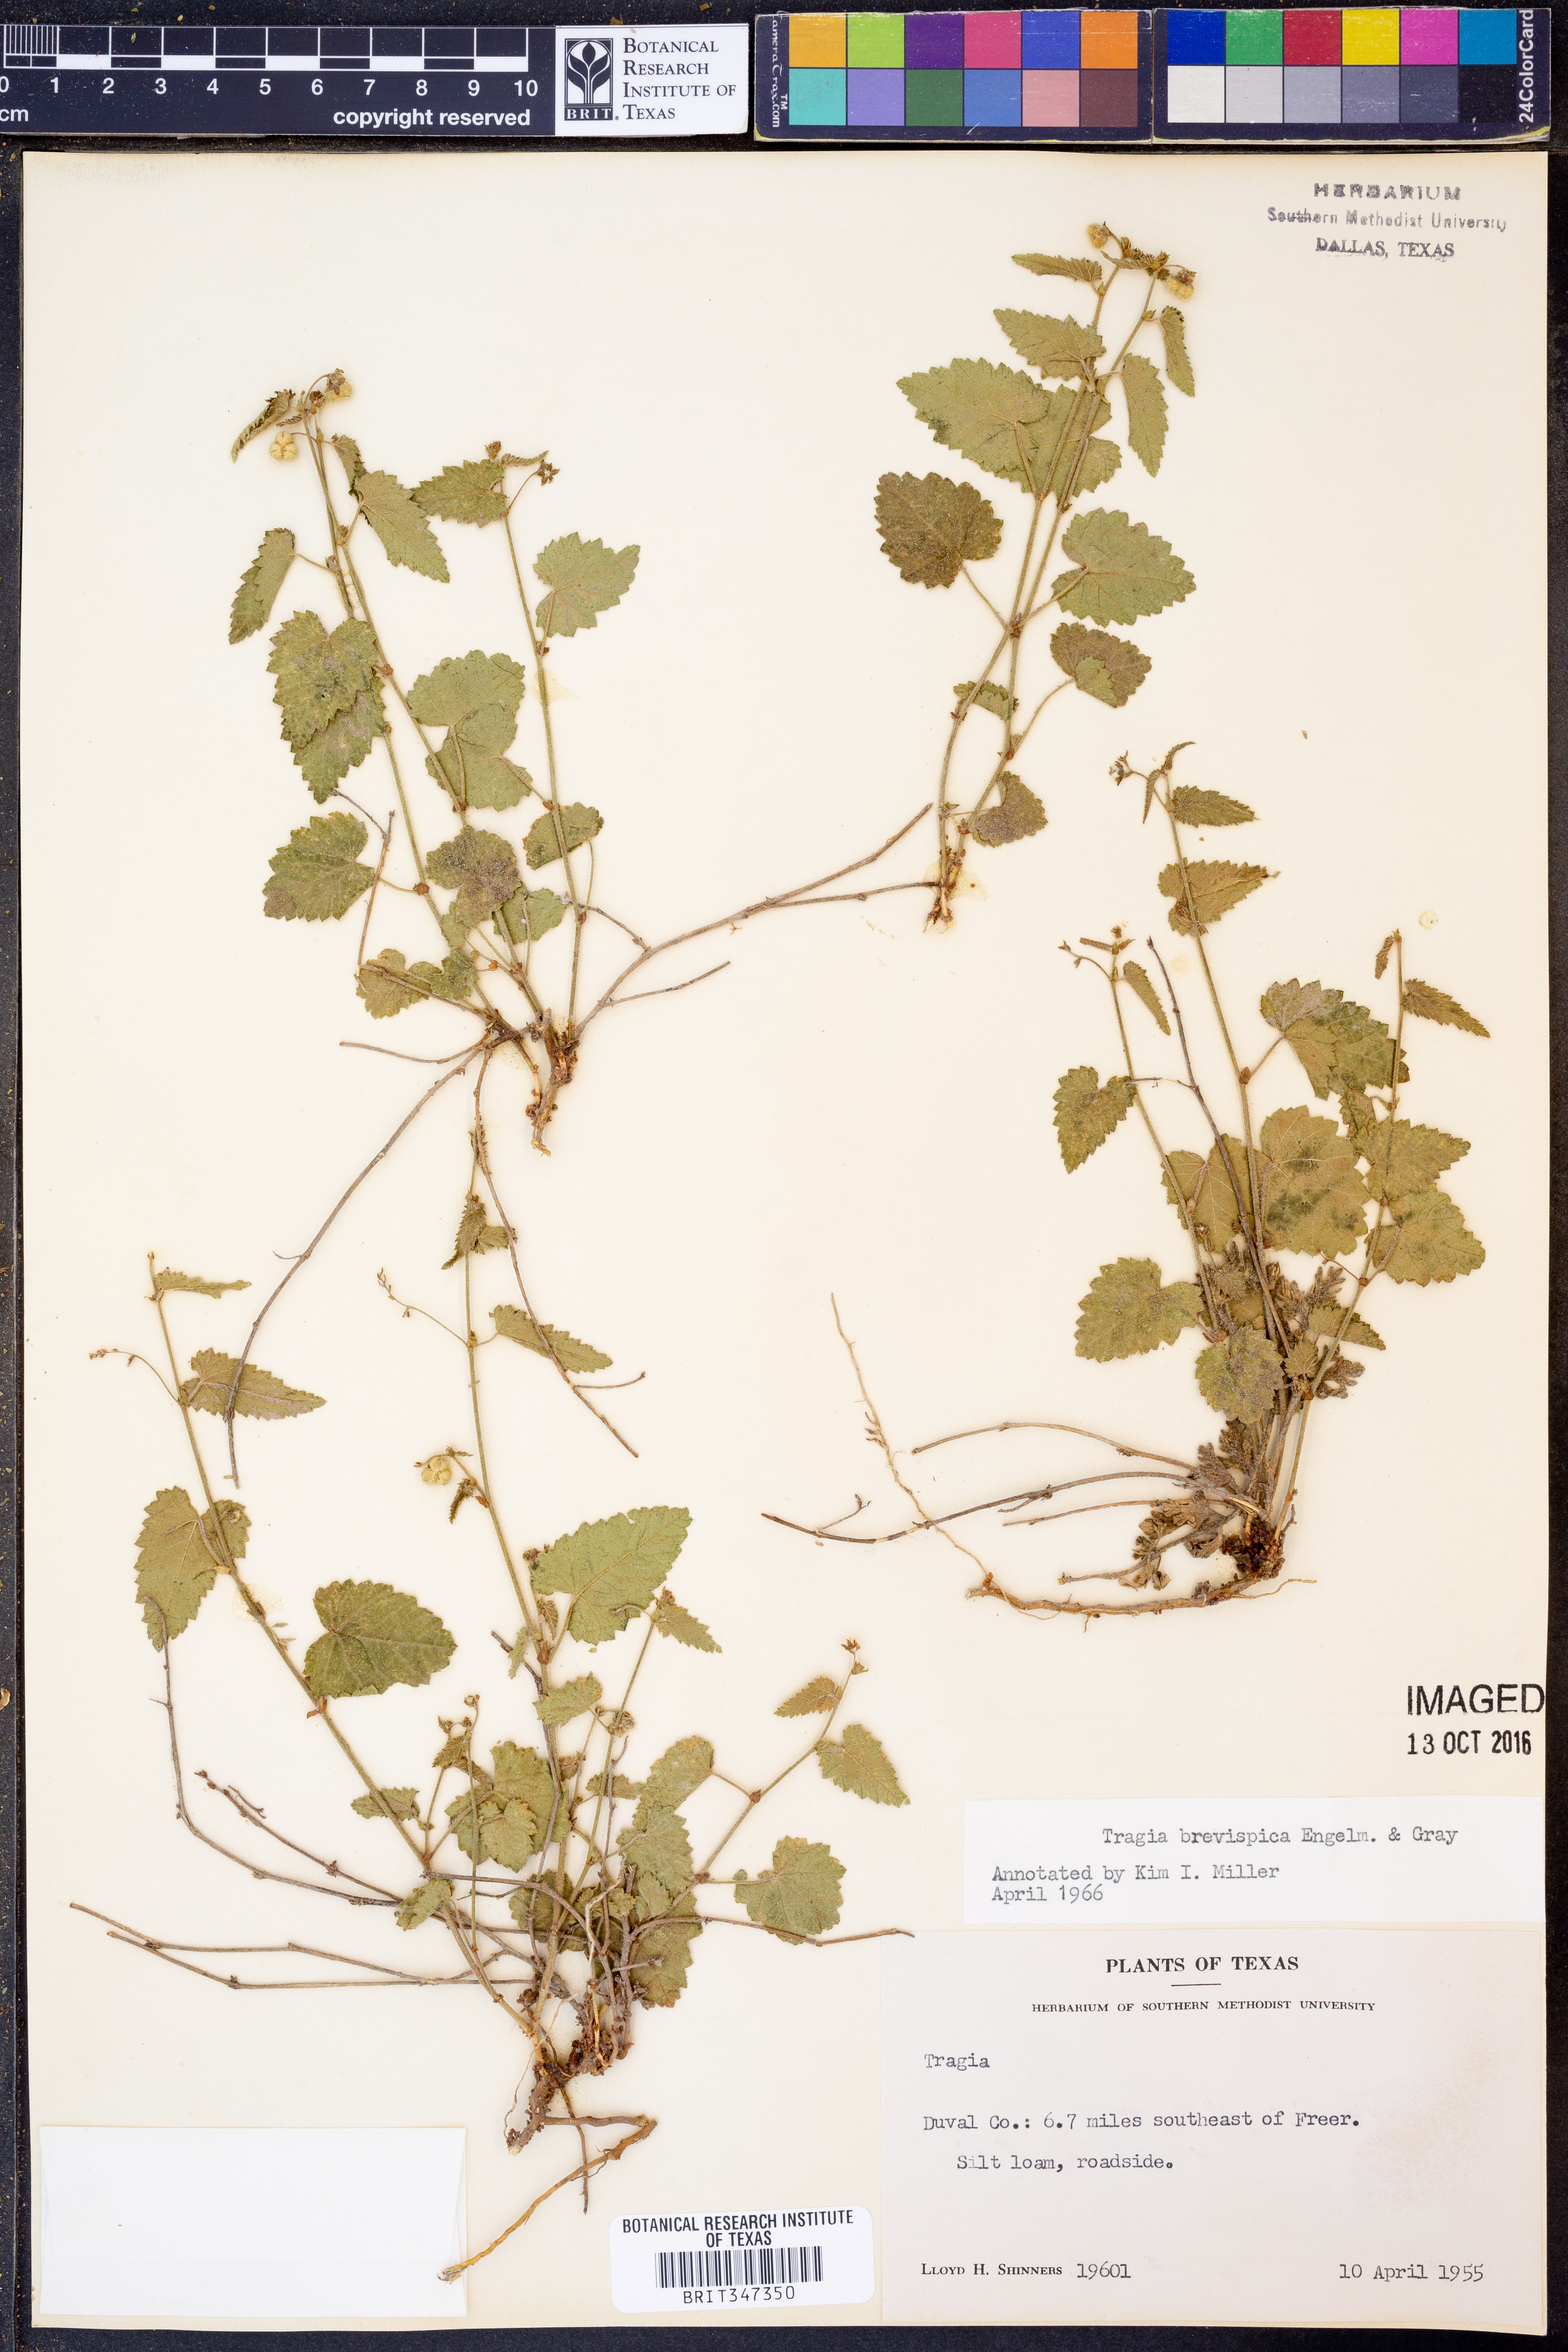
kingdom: Plantae
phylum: Tracheophyta
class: Magnoliopsida
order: Malpighiales
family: Euphorbiaceae
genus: Tragia
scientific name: Tragia brevispica
